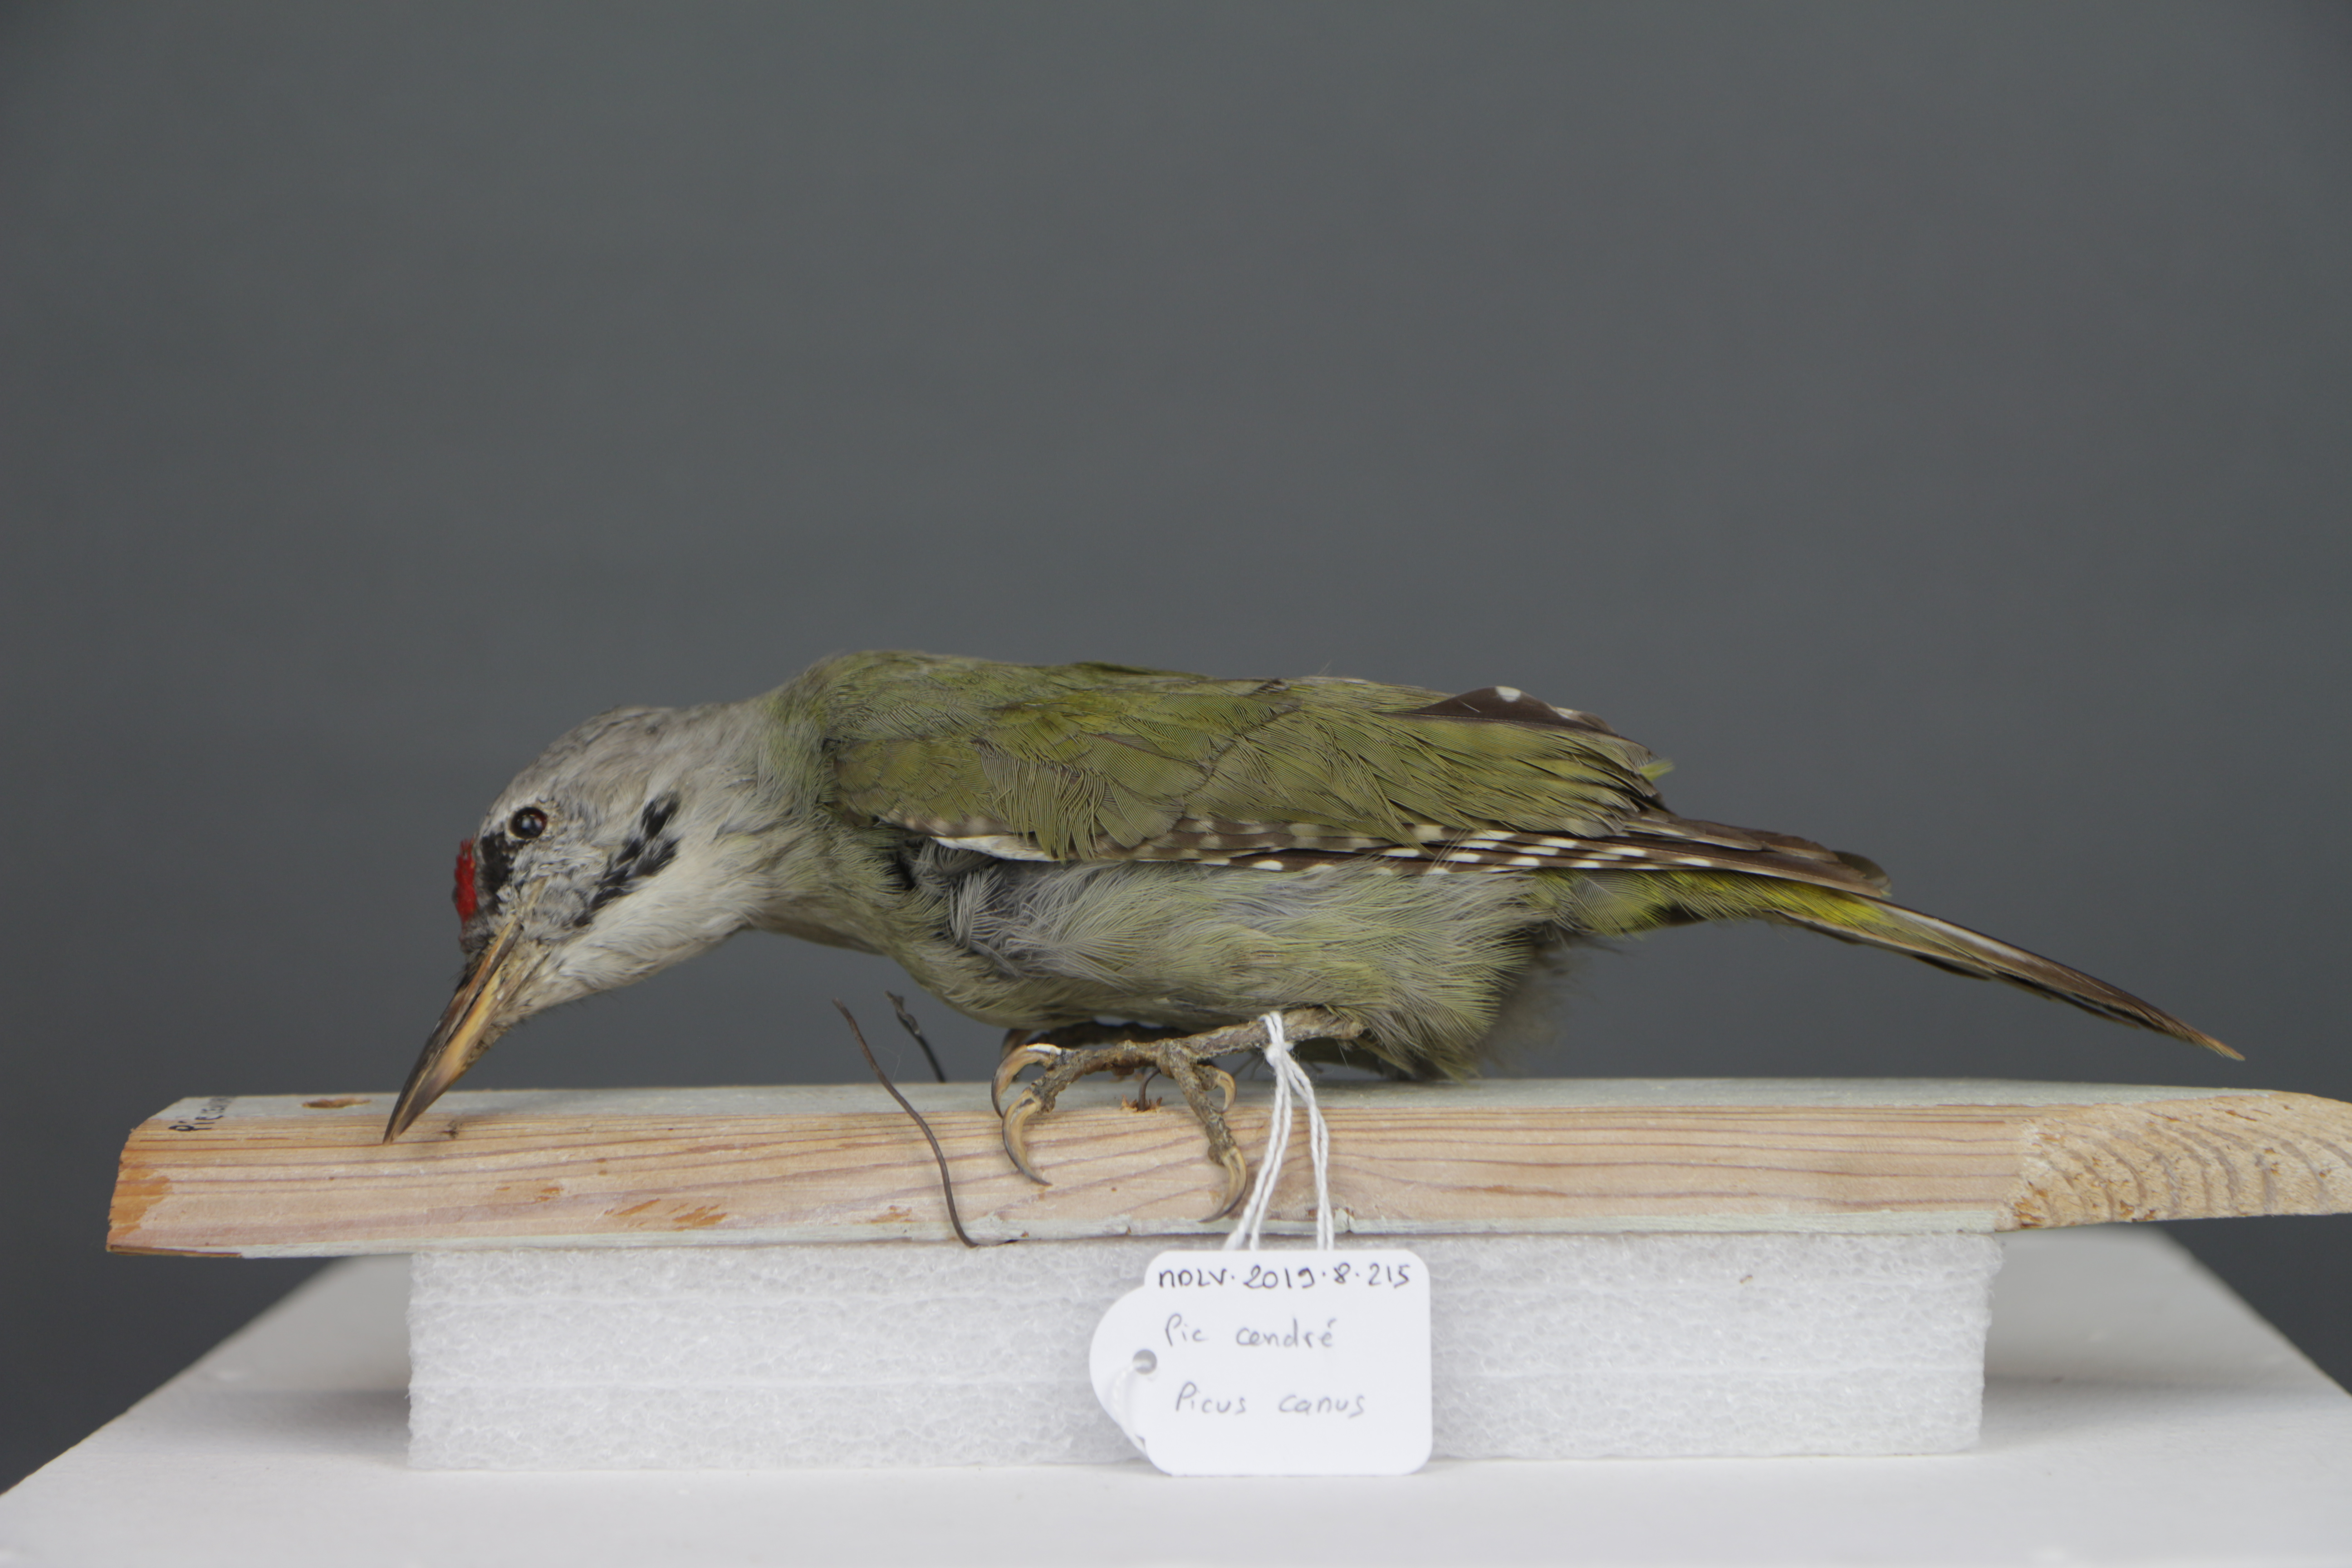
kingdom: Animalia
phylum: Chordata
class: Aves
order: Piciformes
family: Picidae
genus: Picus
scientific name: Picus canus
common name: Grey-headed woodpecker
